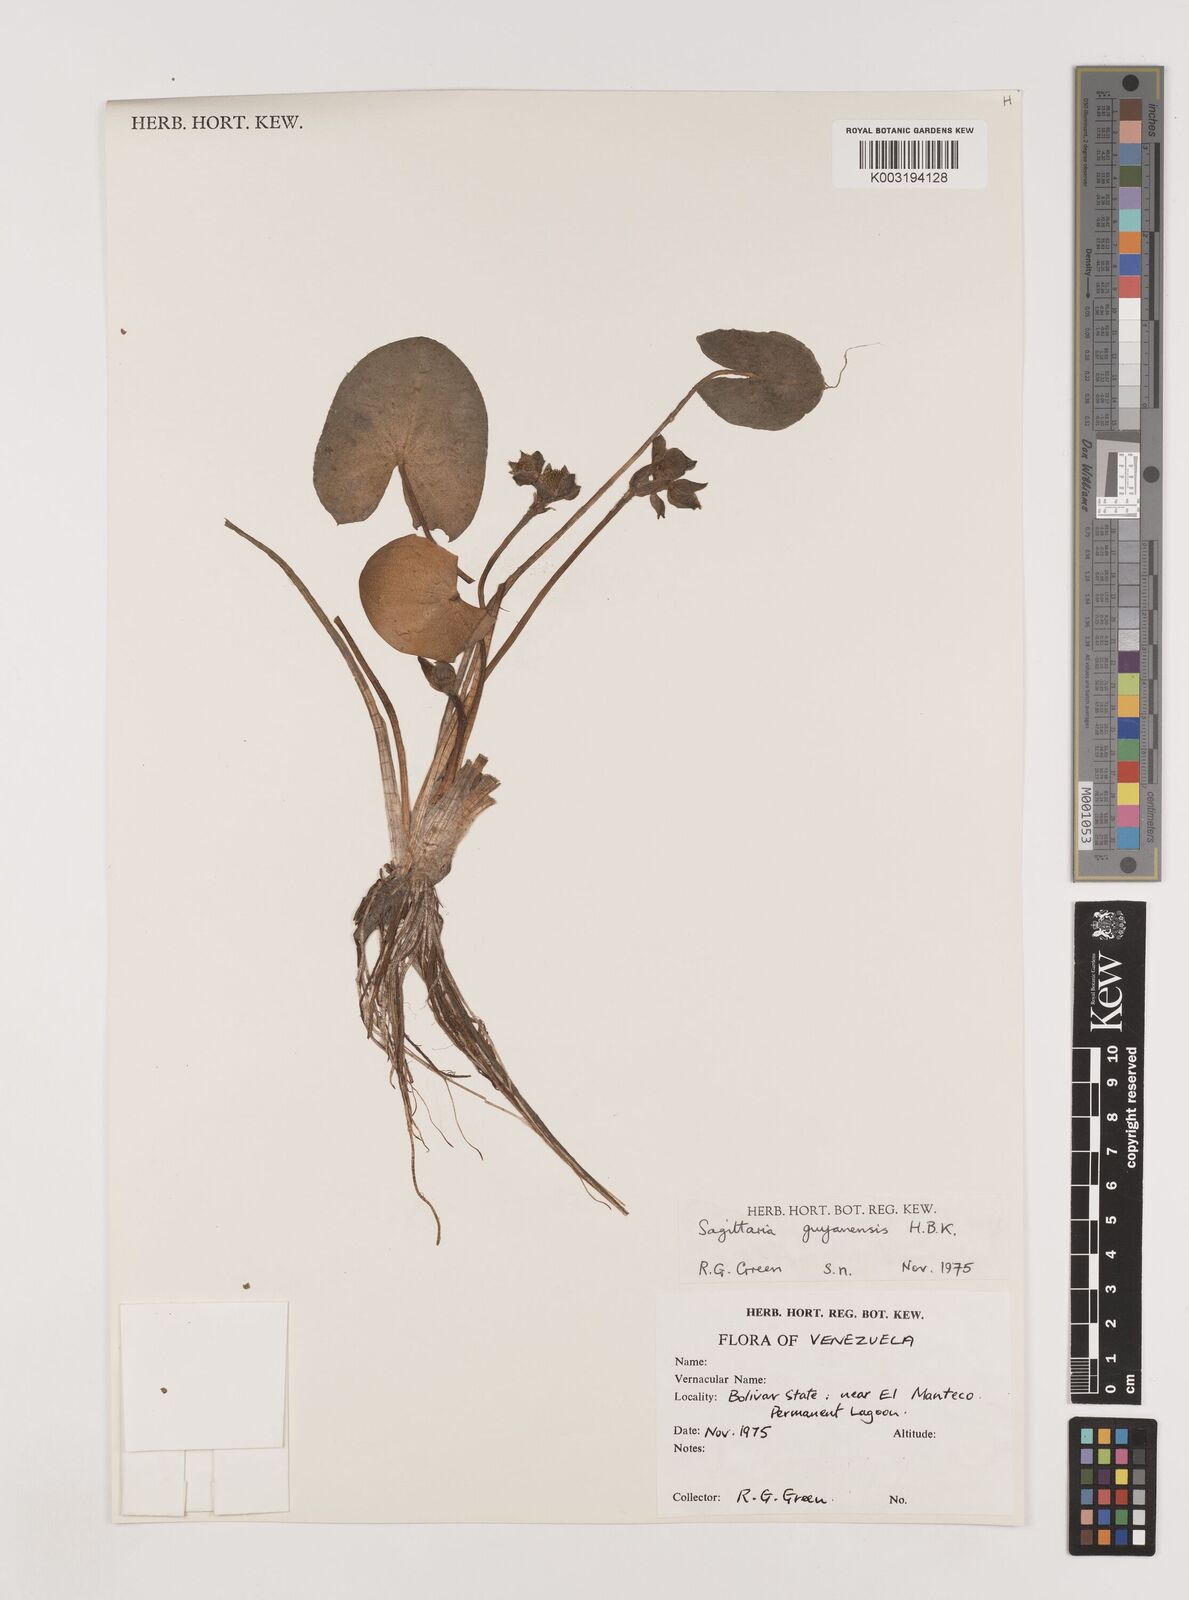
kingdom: Plantae
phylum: Tracheophyta
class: Liliopsida
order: Alismatales
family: Alismataceae
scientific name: Alismataceae
